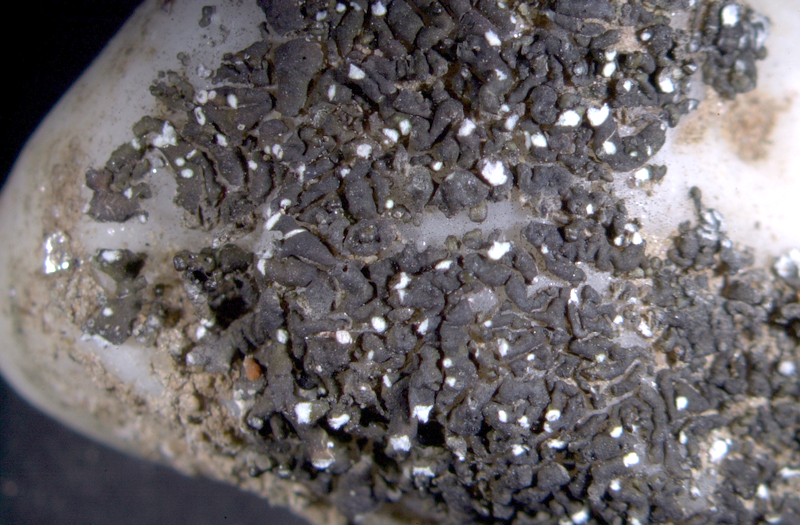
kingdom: Fungi
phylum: Ascomycota
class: Lecanoromycetes
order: Teloschistales
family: Teloschistaceae
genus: Stellarangia
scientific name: Stellarangia testudinea
